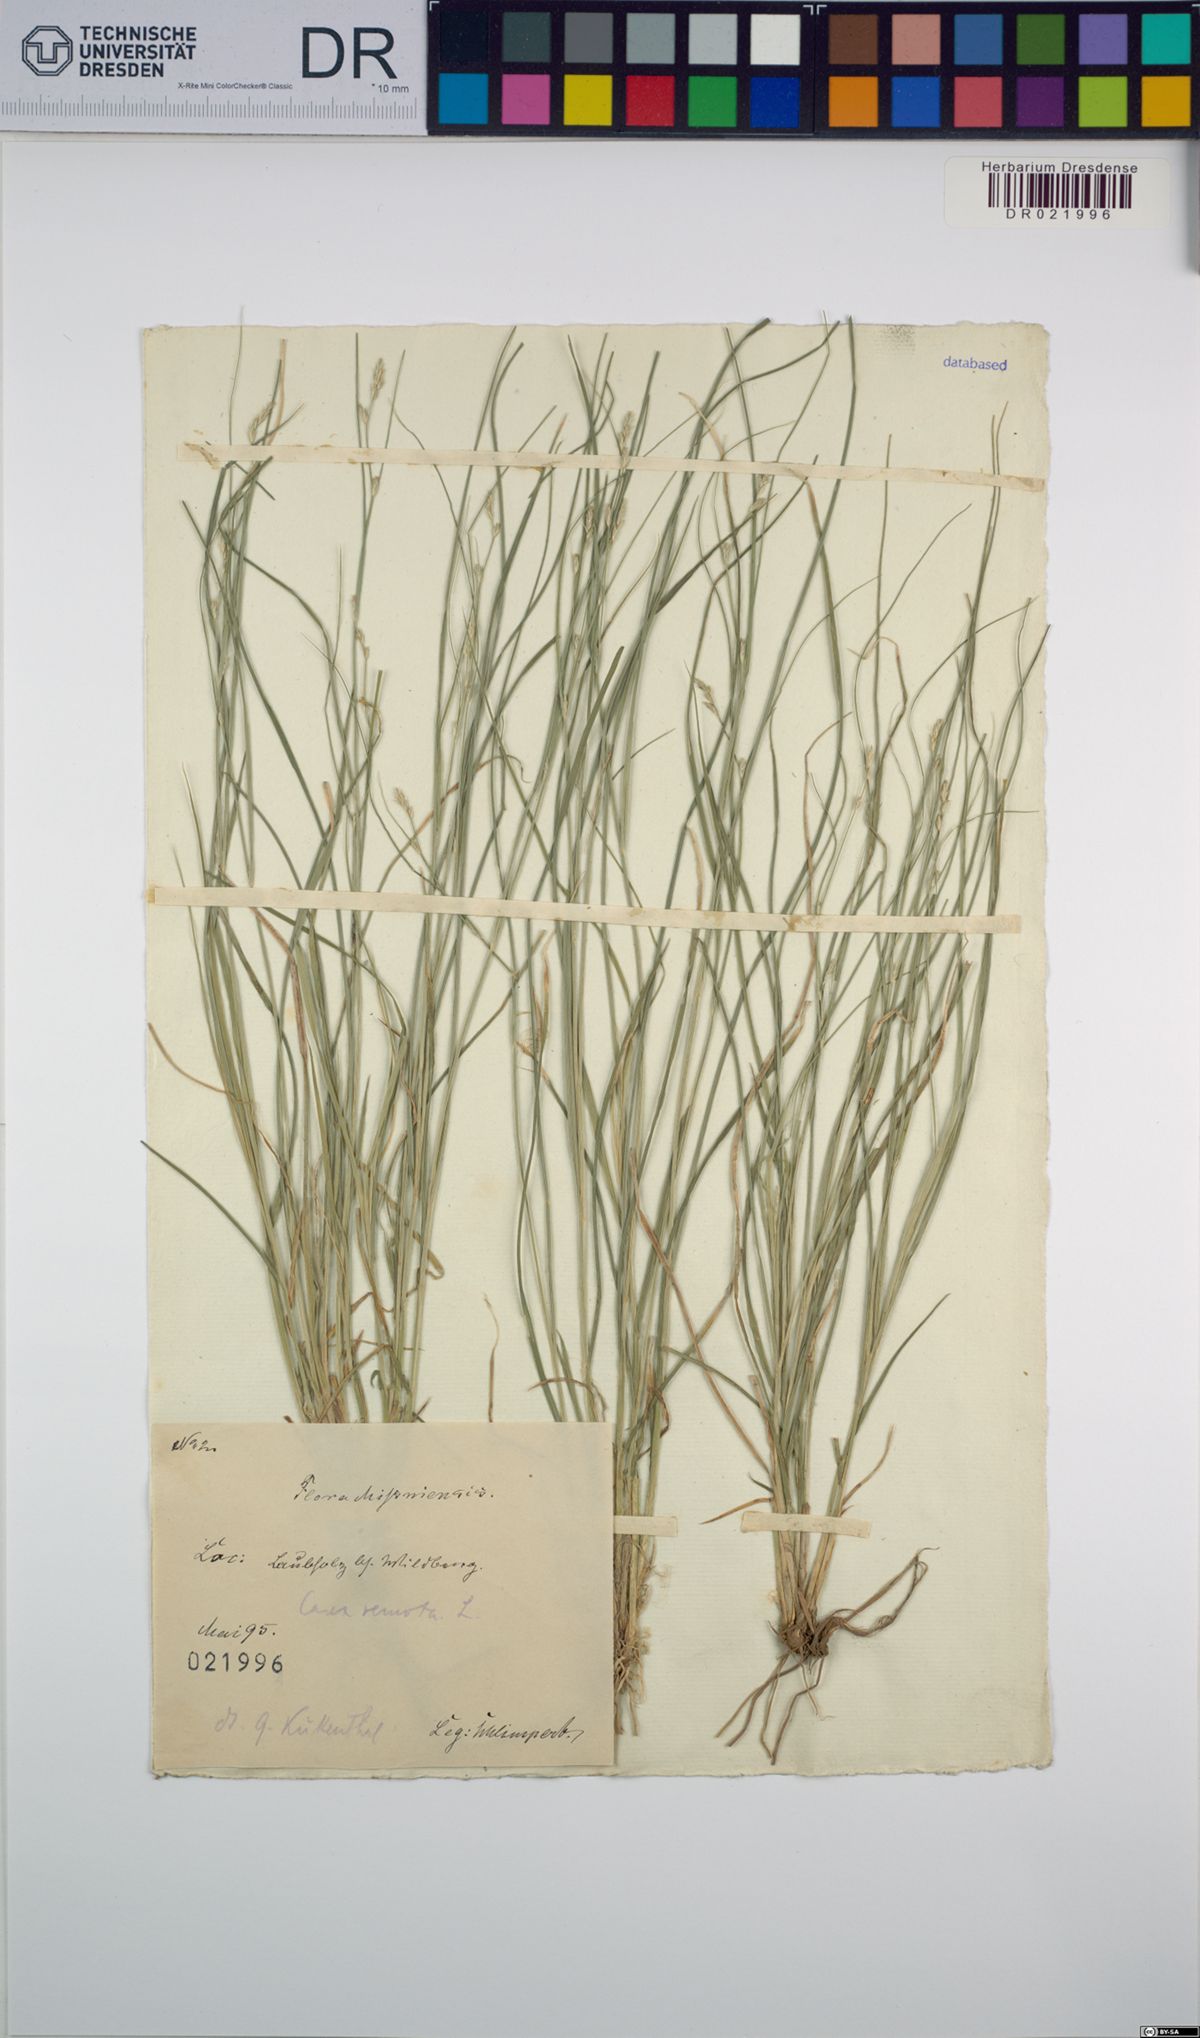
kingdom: Plantae
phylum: Tracheophyta
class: Liliopsida
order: Poales
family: Cyperaceae
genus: Carex
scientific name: Carex remota
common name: Remote sedge
